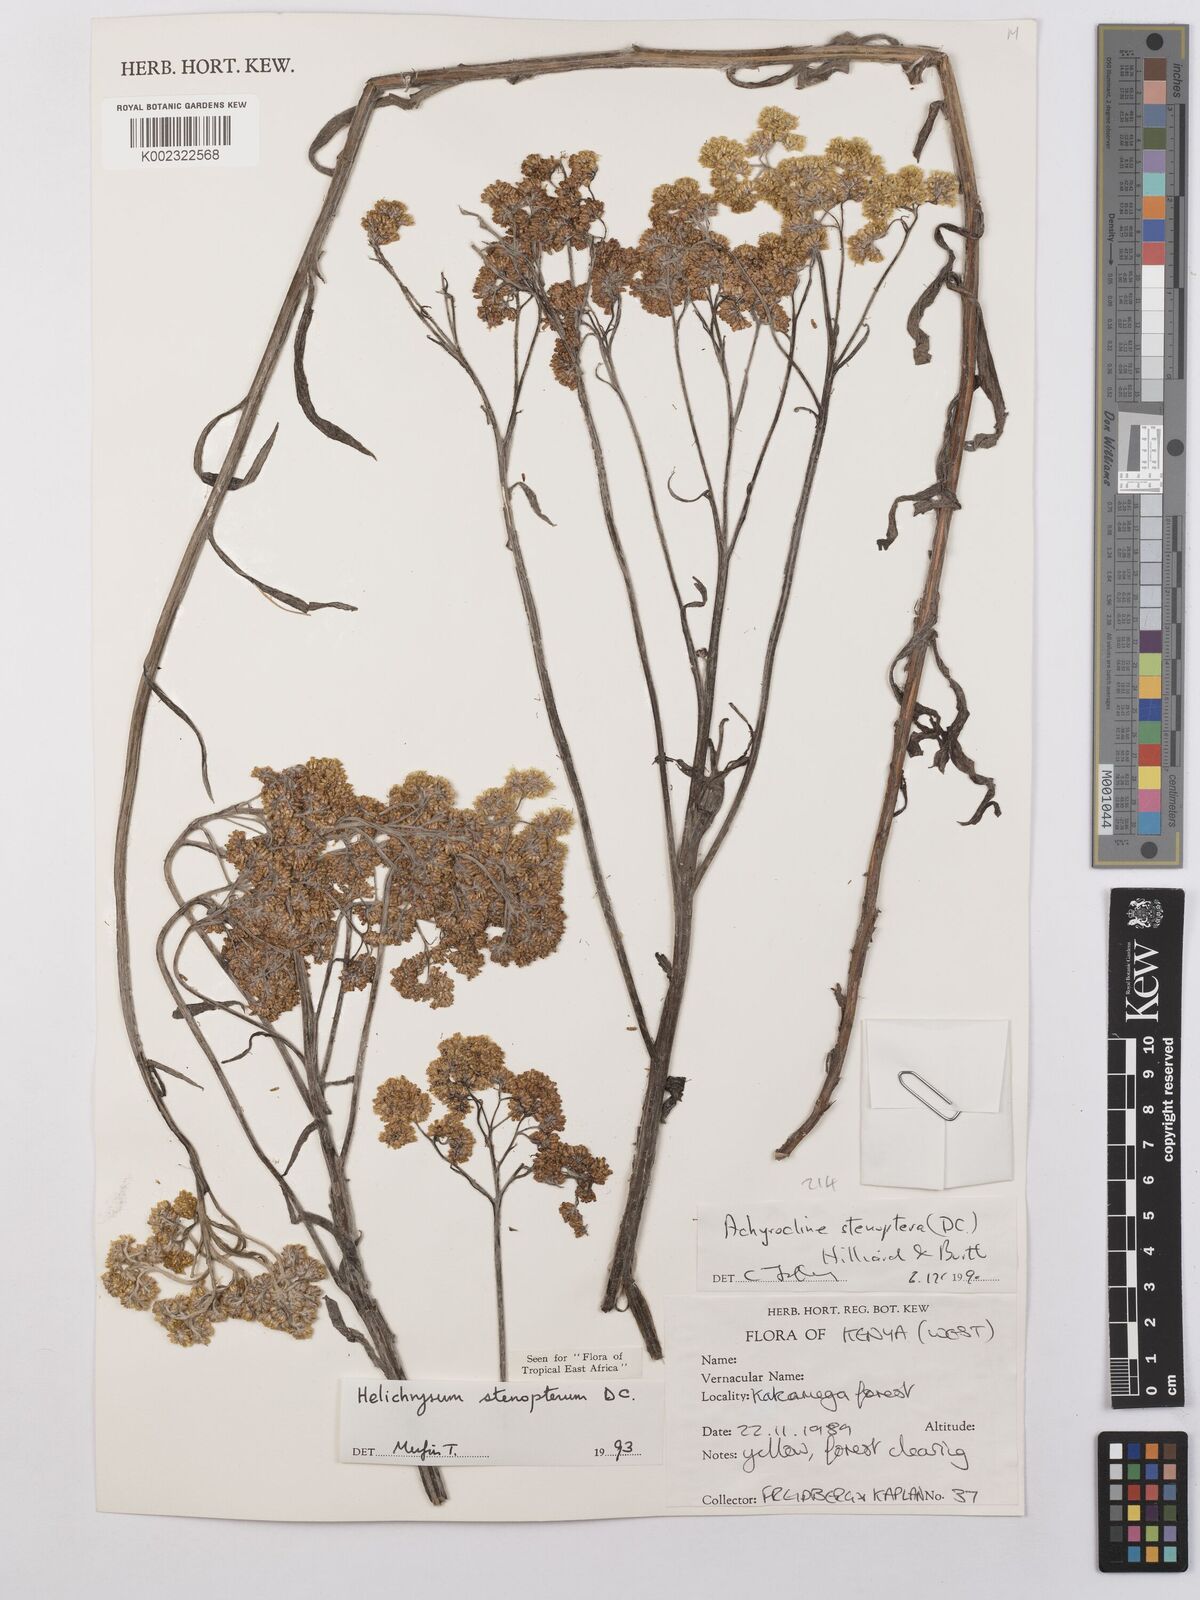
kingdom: Plantae
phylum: Tracheophyta
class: Magnoliopsida
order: Asterales
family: Asteraceae
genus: Helichrysum
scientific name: Helichrysum stenopterum
